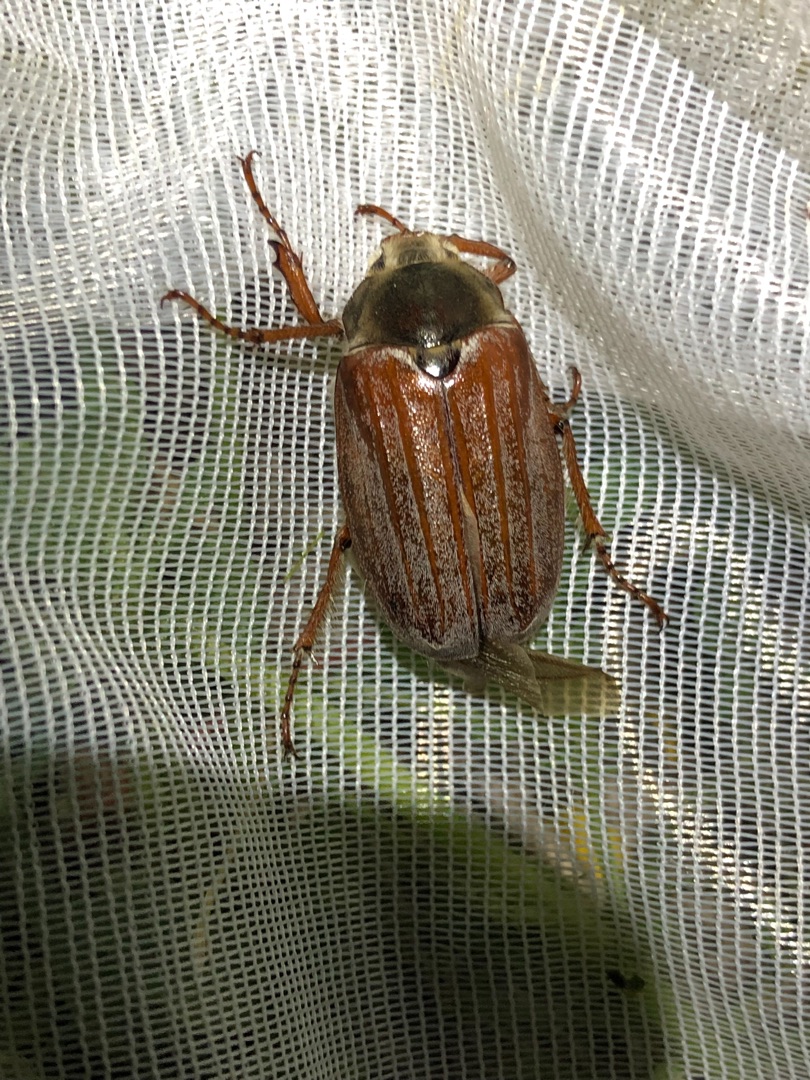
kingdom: Animalia
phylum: Arthropoda
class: Insecta
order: Coleoptera
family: Scarabaeidae
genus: Melolontha
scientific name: Melolontha melolontha
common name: Almindelig oldenborre
